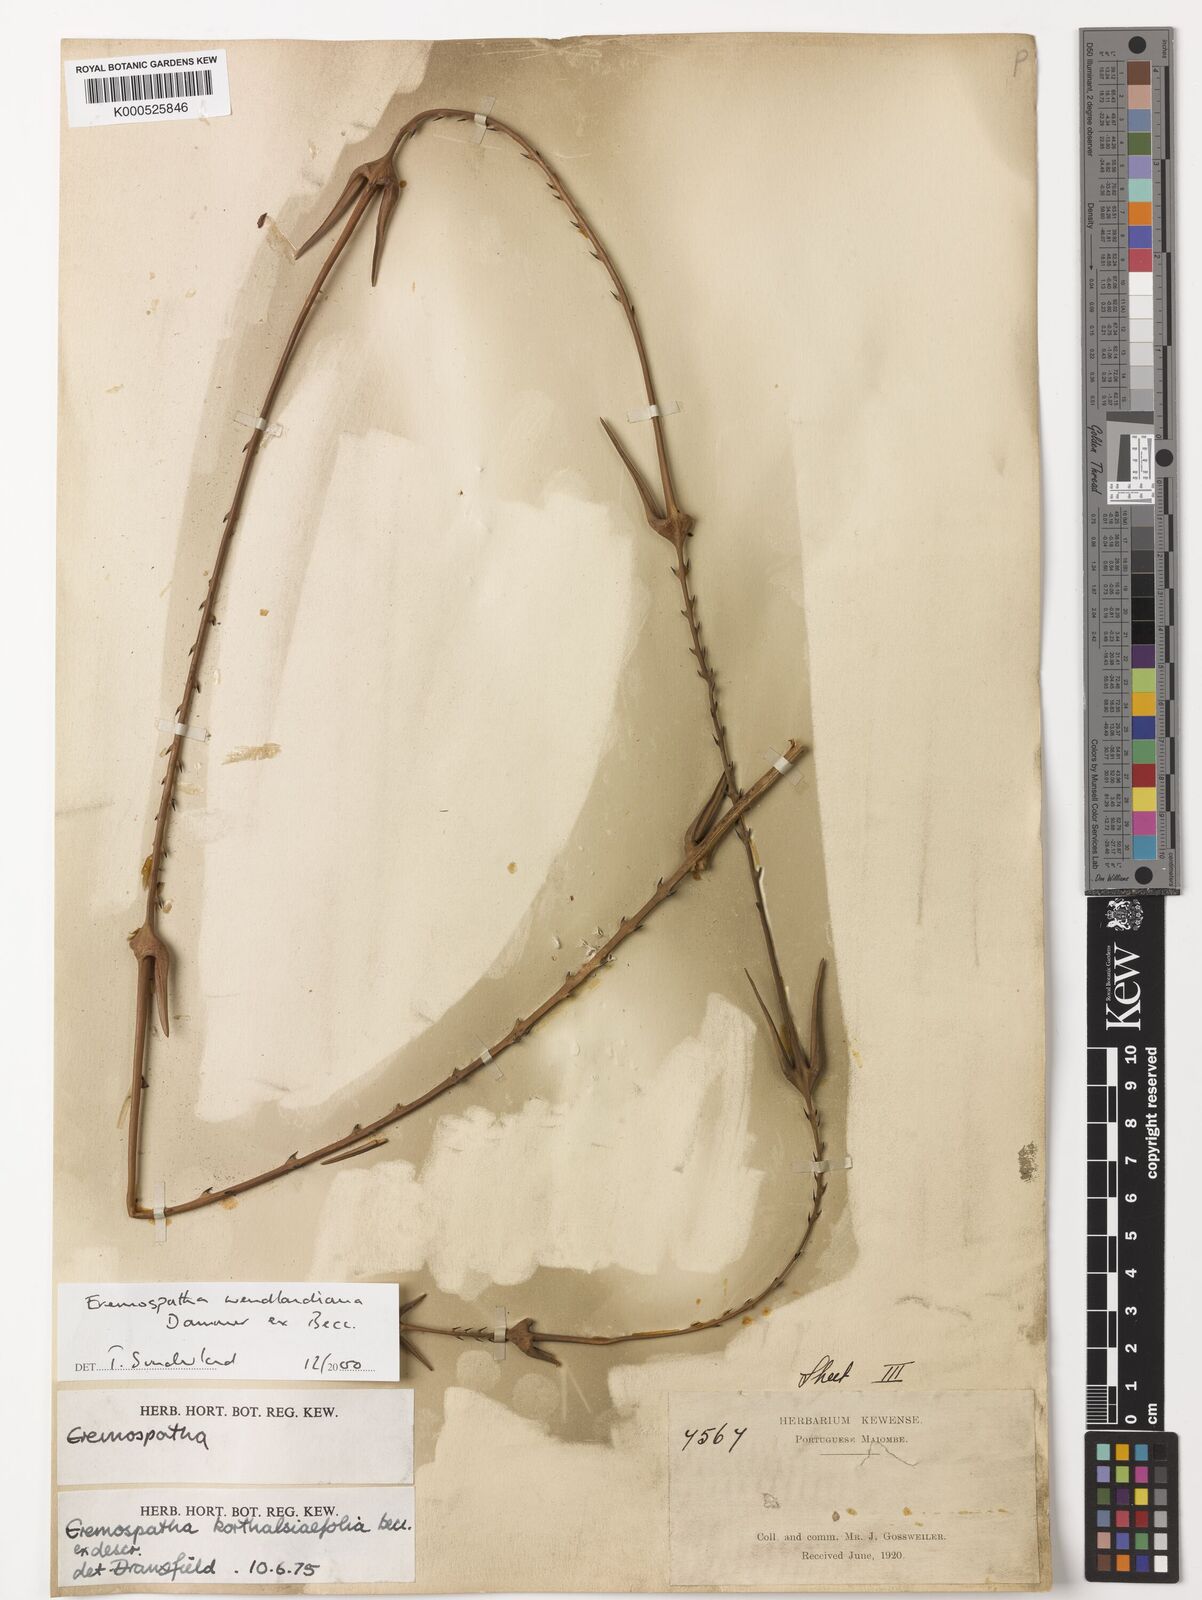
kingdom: Plantae
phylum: Tracheophyta
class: Liliopsida
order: Arecales
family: Arecaceae
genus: Eremospatha
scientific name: Eremospatha
